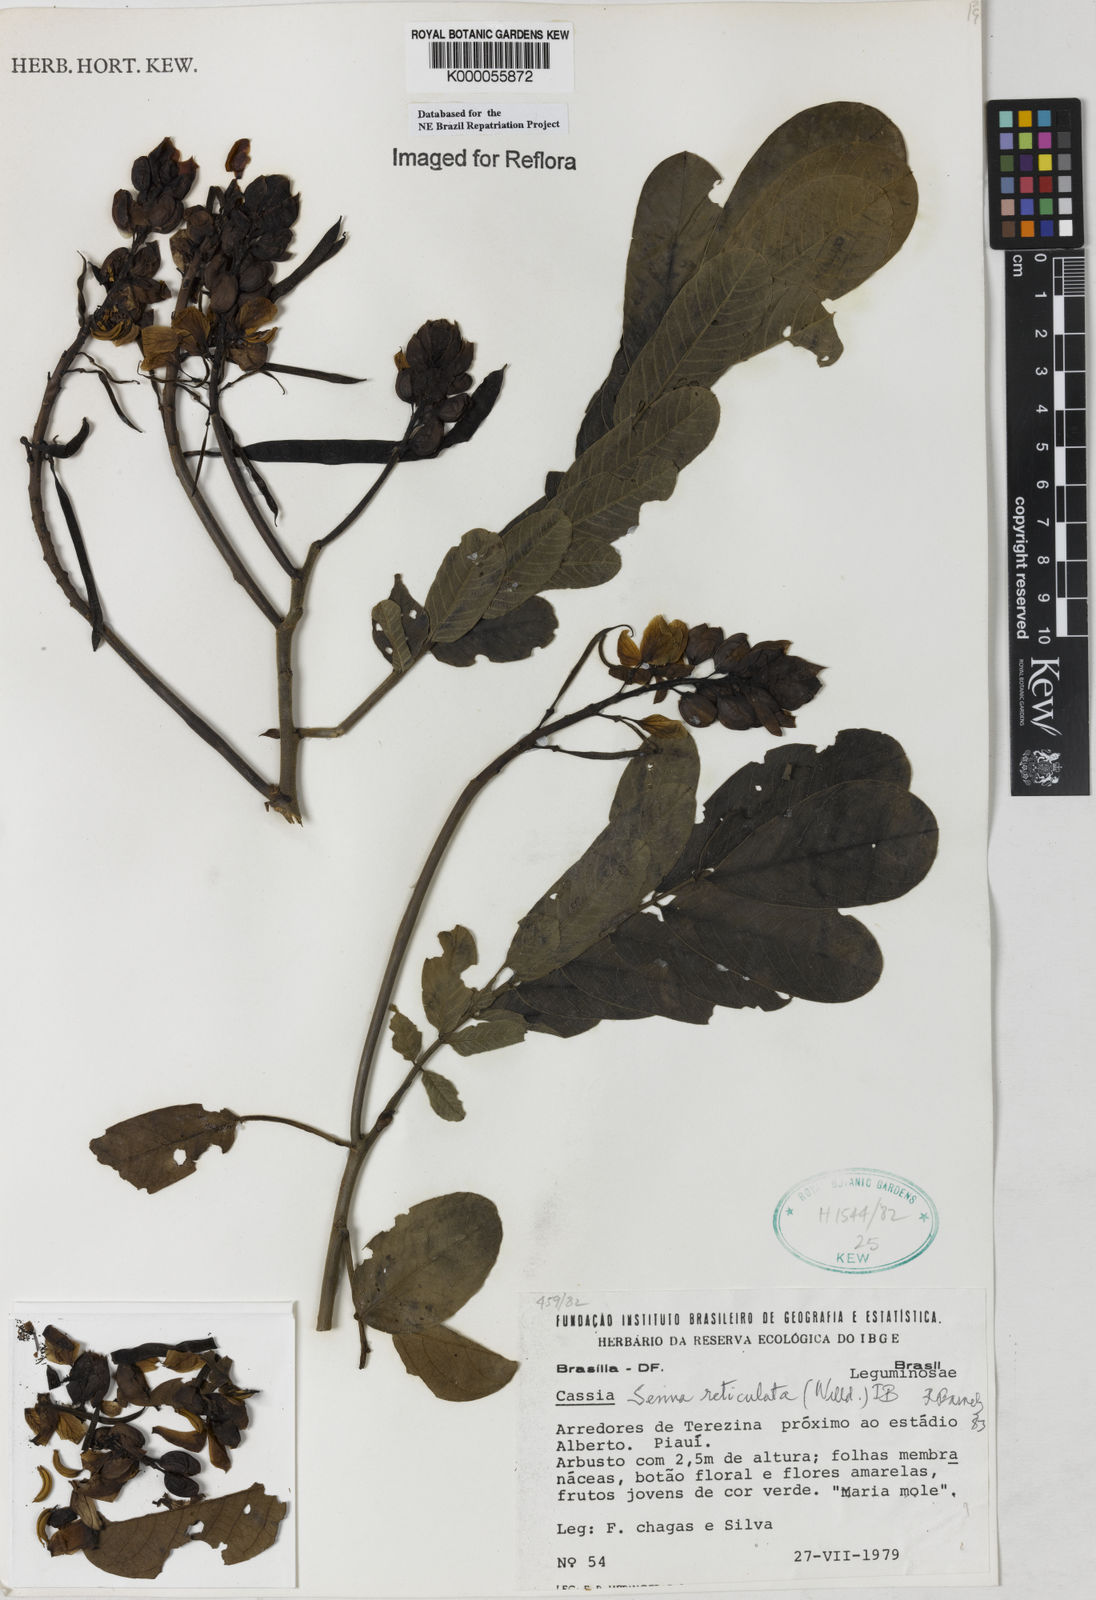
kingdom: Plantae
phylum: Tracheophyta
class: Magnoliopsida
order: Fabales
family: Fabaceae
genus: Senna
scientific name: Senna reticulata
